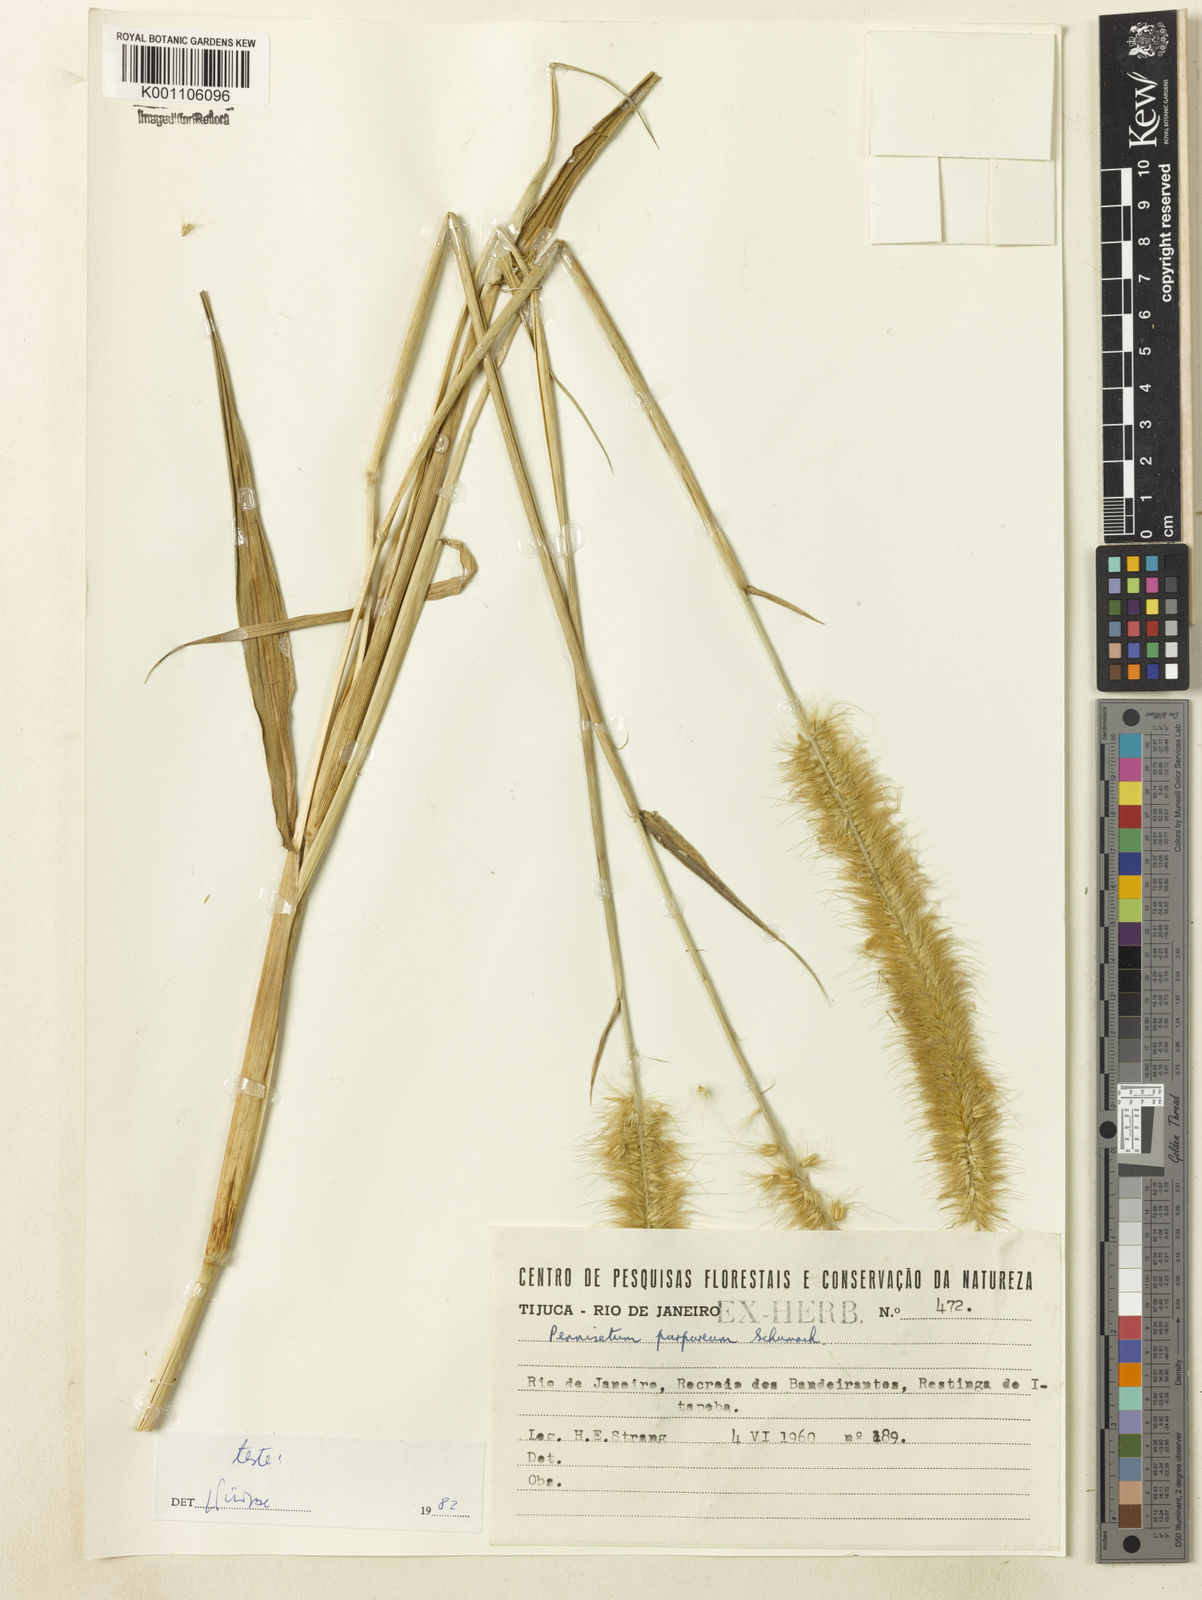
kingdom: Plantae
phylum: Tracheophyta
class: Liliopsida
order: Poales
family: Poaceae
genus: Cenchrus
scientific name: Cenchrus purpureus
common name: Elephant grass
